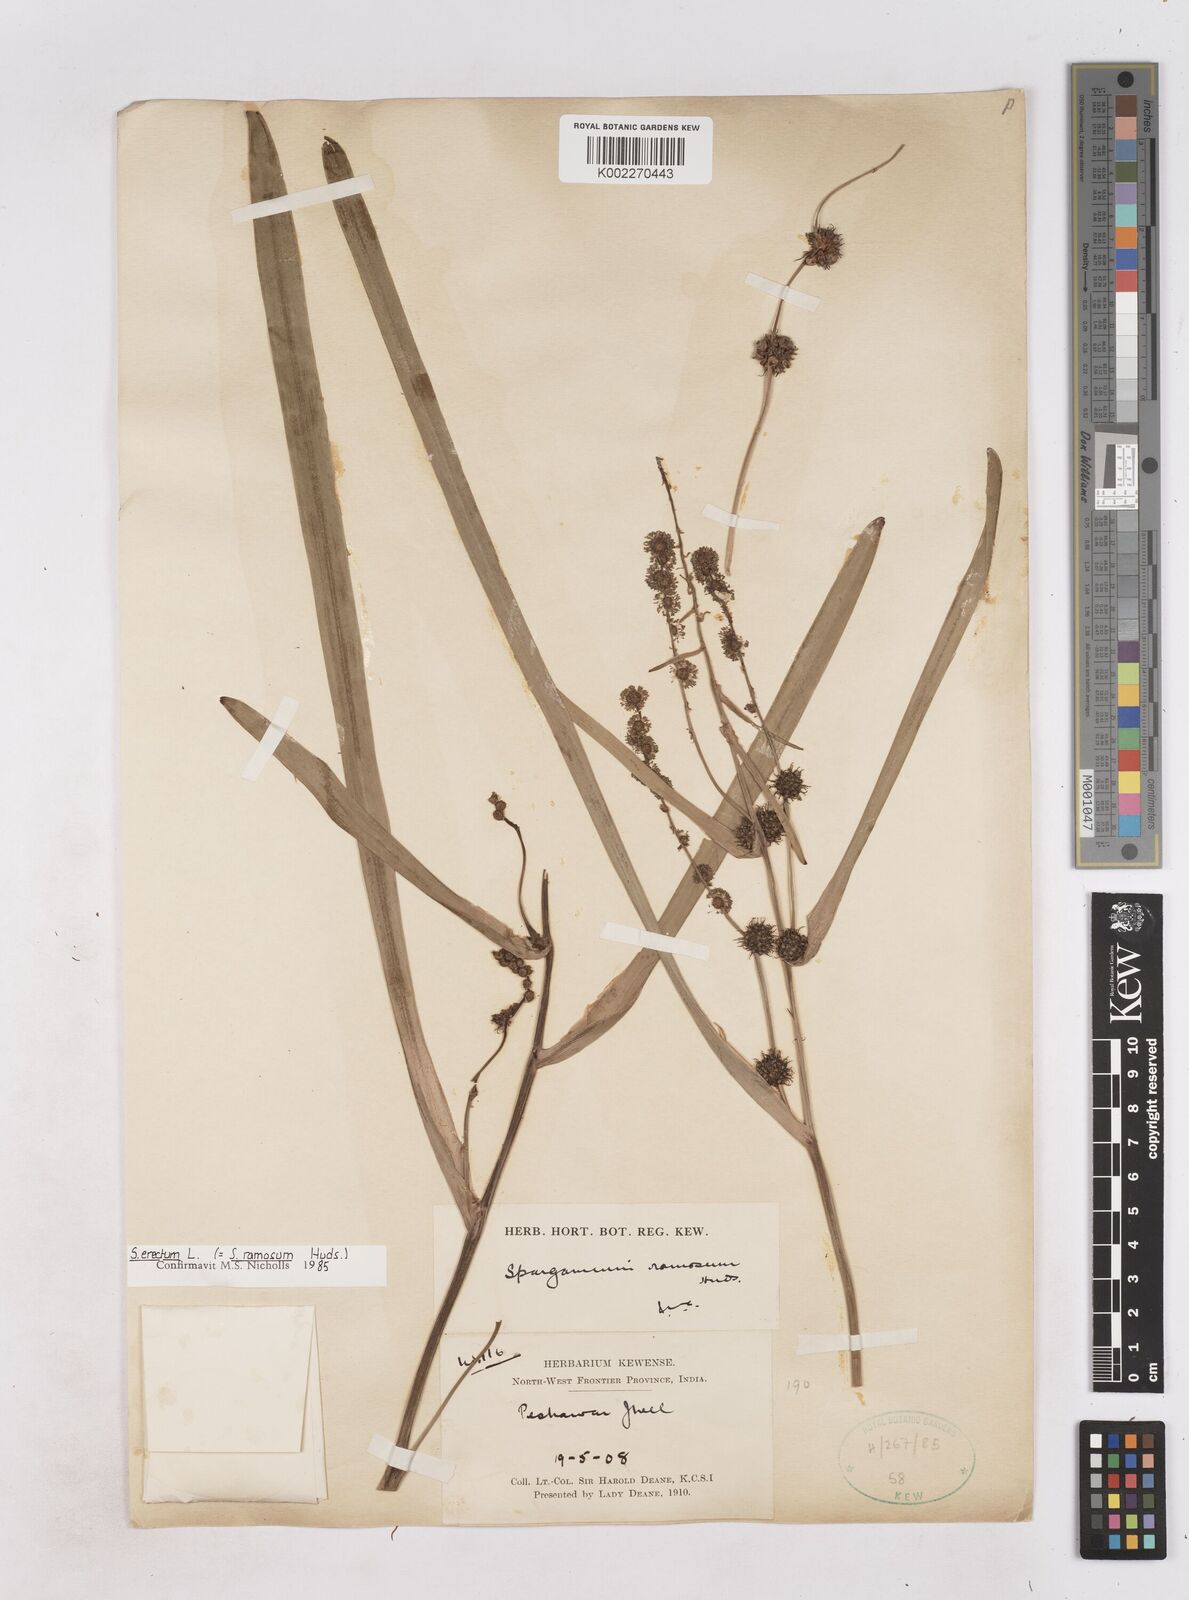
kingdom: Plantae
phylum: Tracheophyta
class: Liliopsida
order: Poales
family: Typhaceae
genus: Sparganium
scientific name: Sparganium erectum
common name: Branched bur-reed
